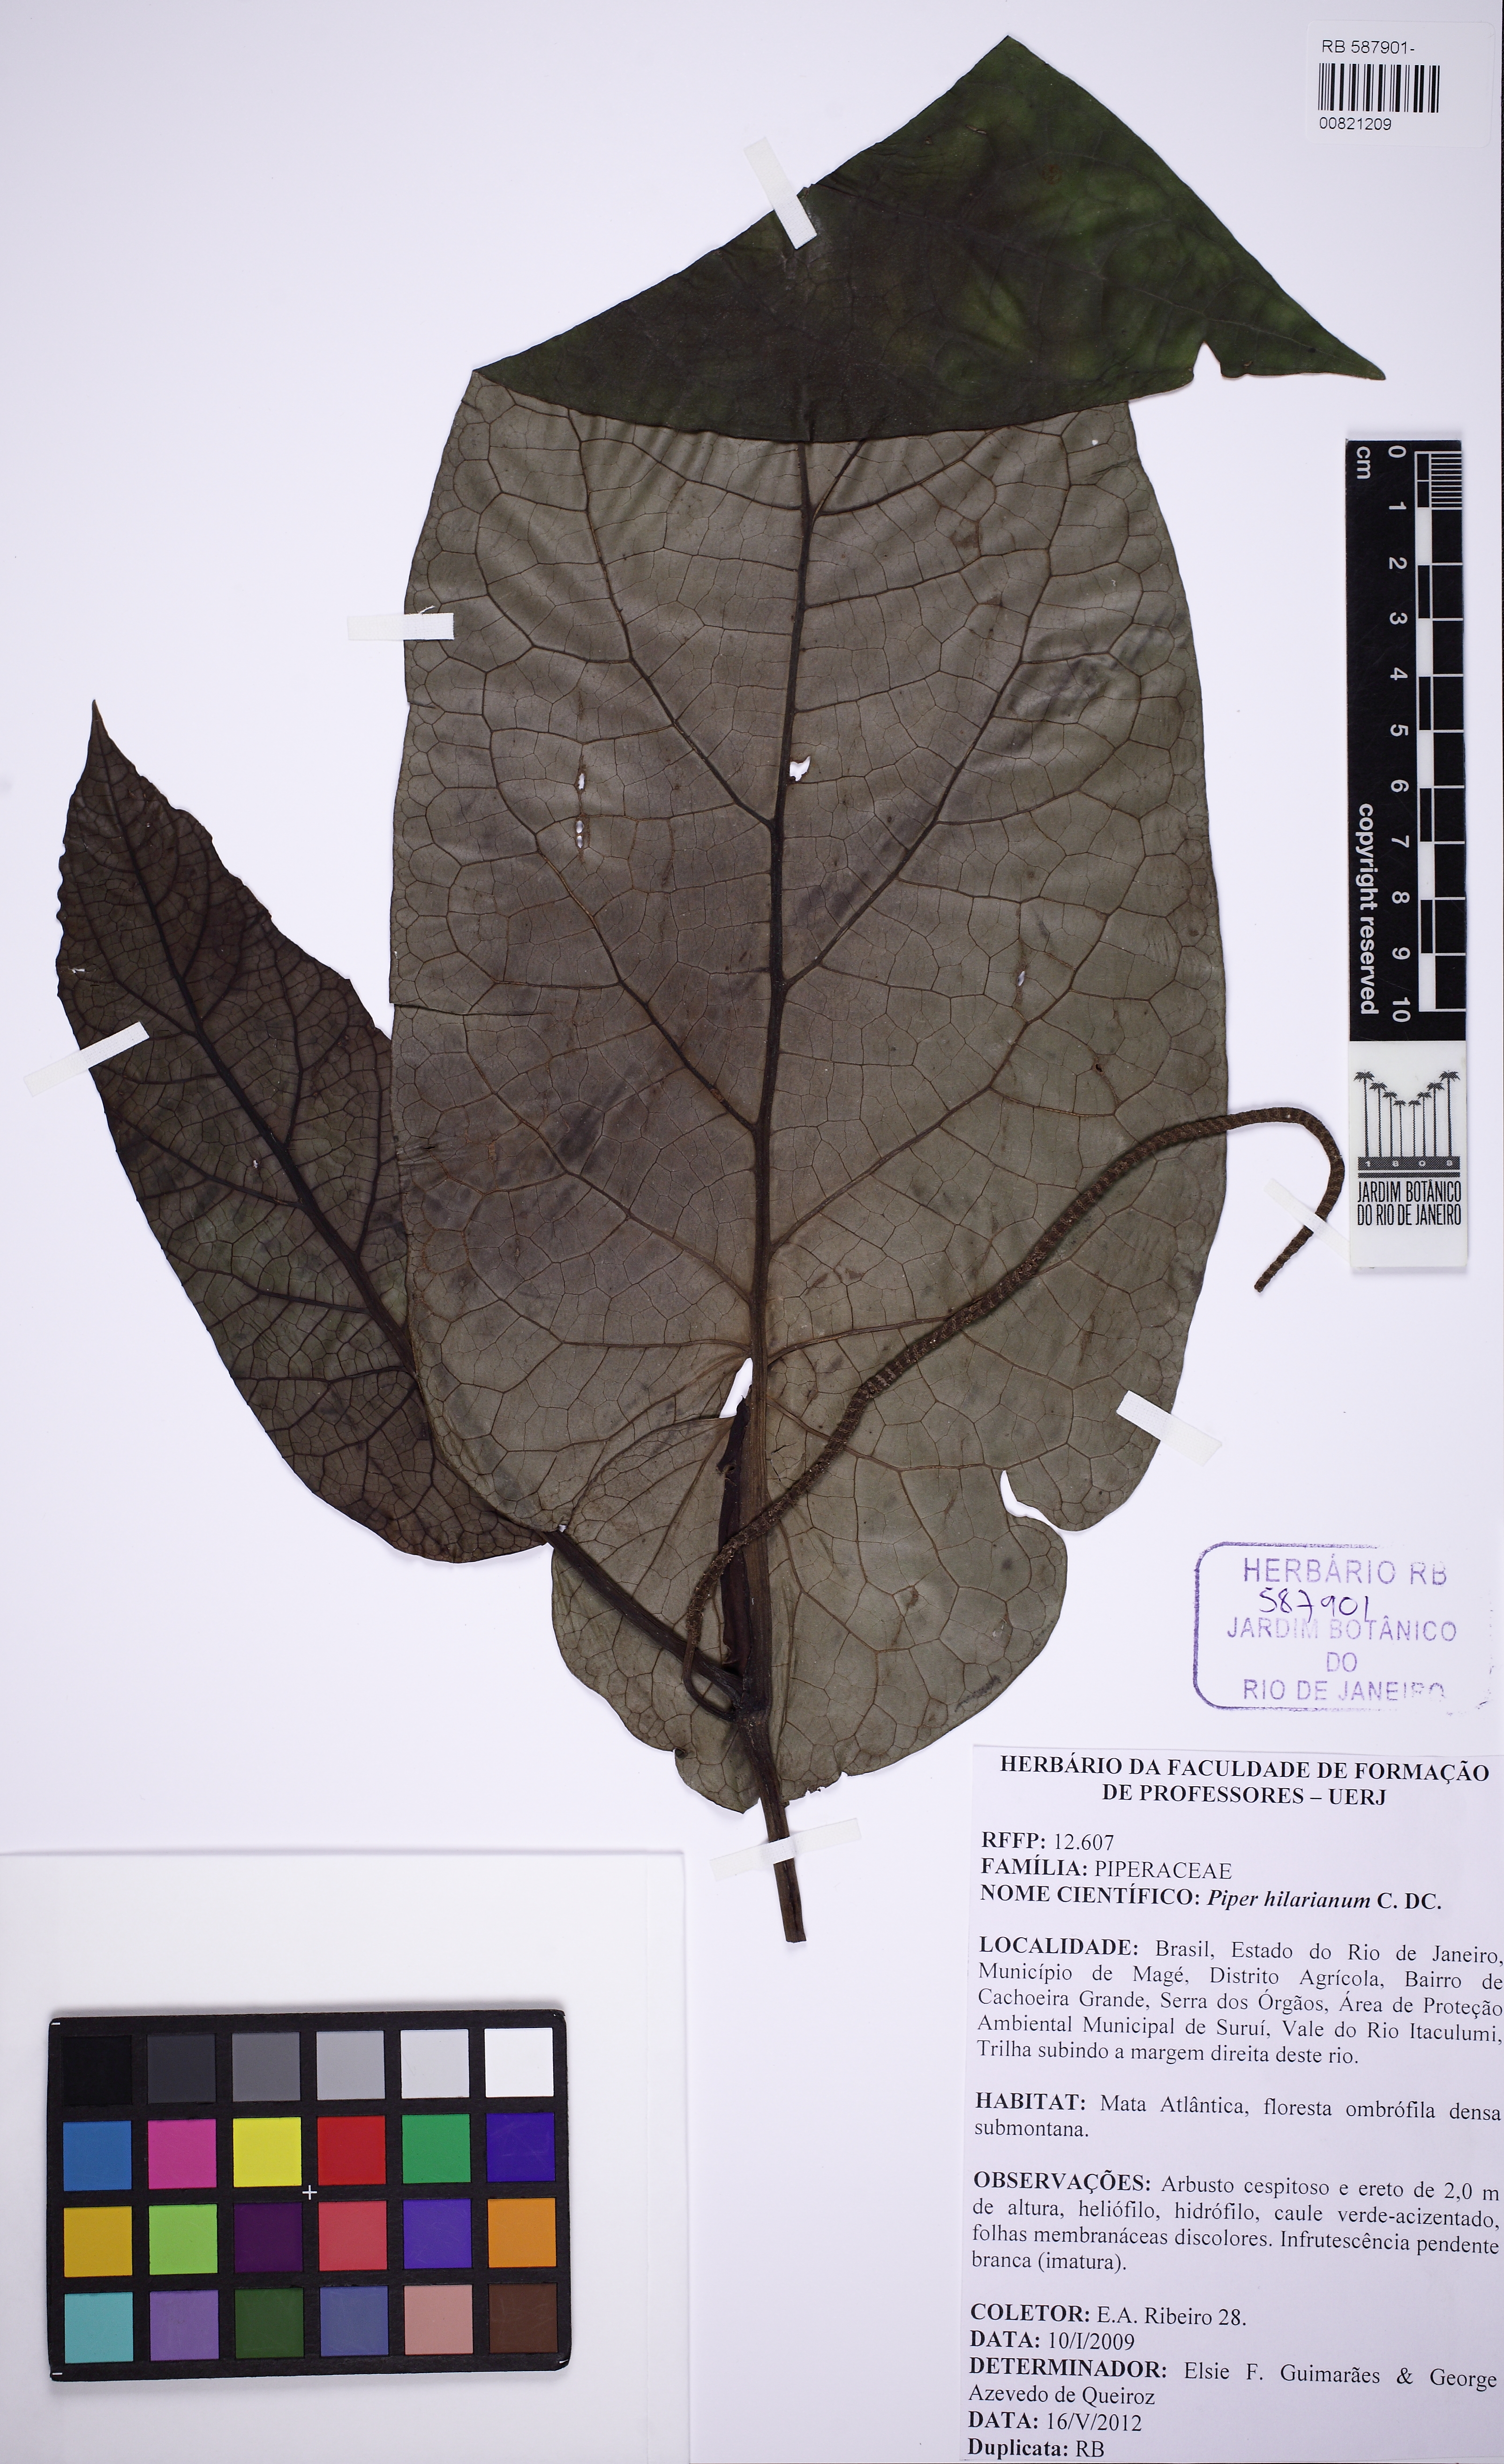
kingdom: Plantae
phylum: Tracheophyta
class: Magnoliopsida
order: Piperales
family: Piperaceae
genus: Piper
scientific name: Piper solmsianum
